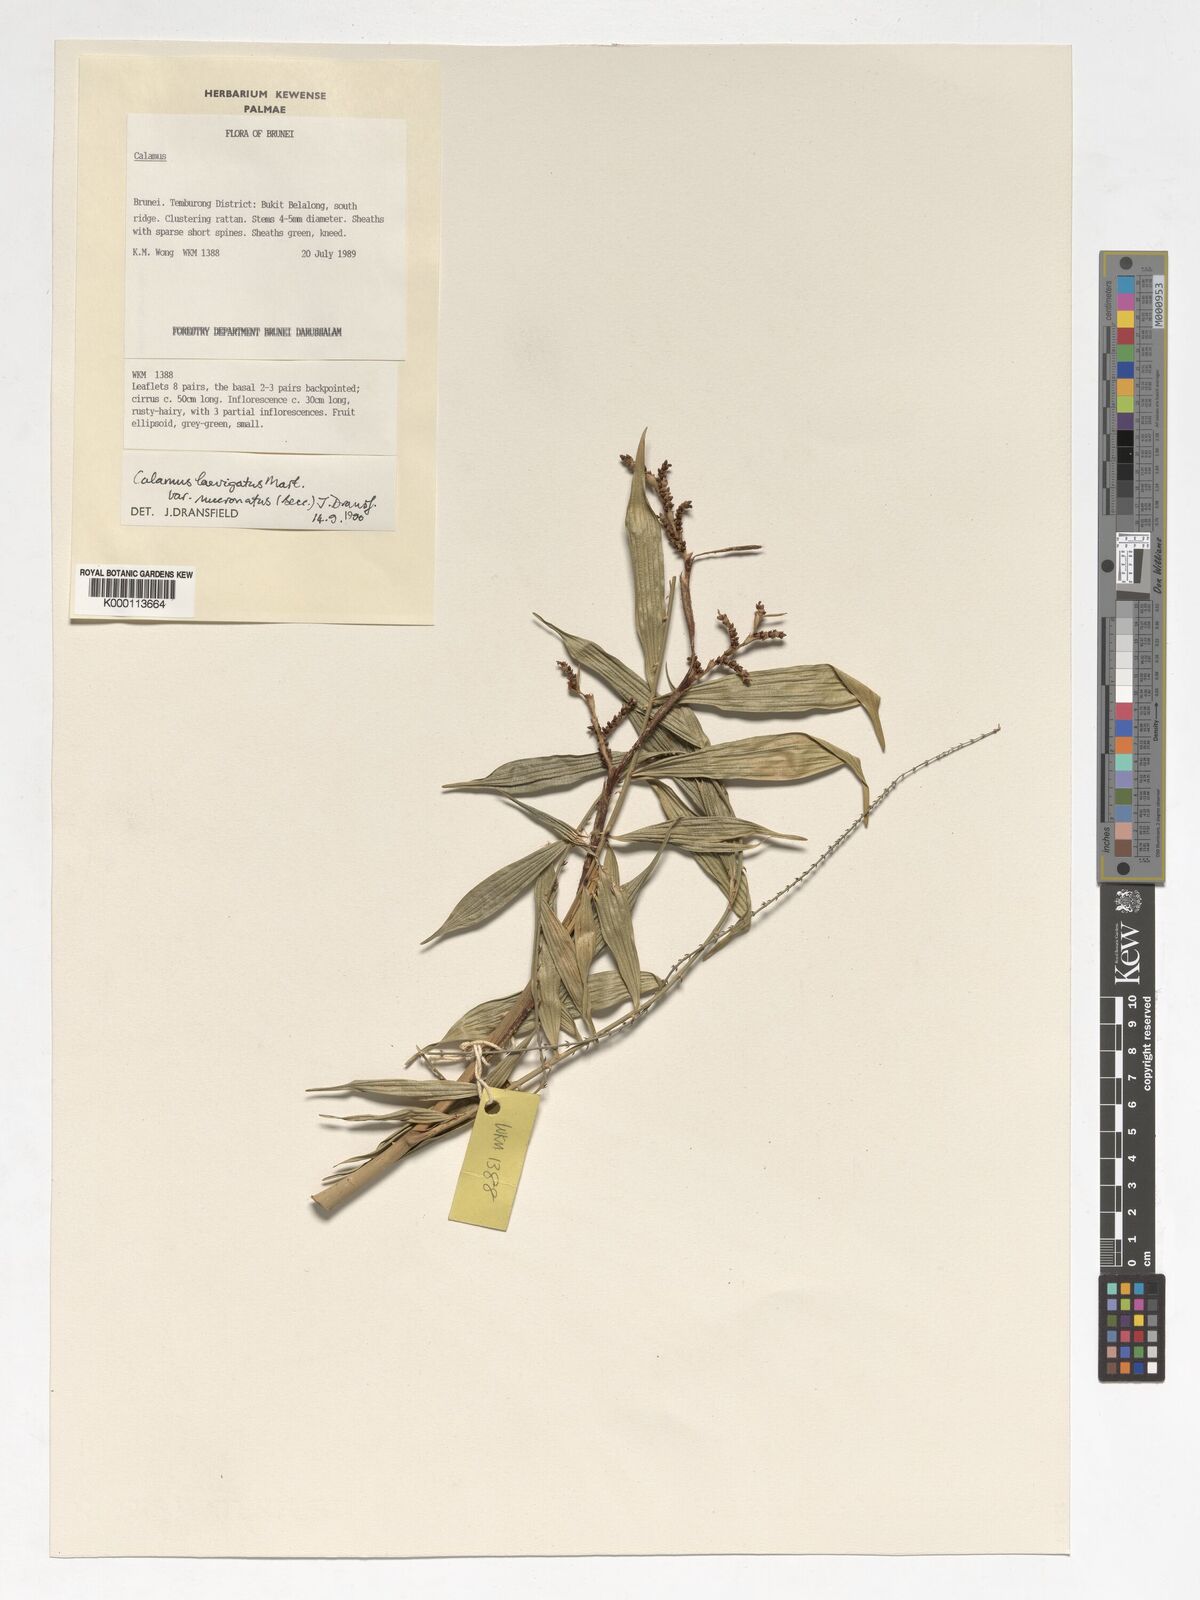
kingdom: Plantae
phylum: Tracheophyta
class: Liliopsida
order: Arecales
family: Arecaceae
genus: Calamus
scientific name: Calamus plicatus
